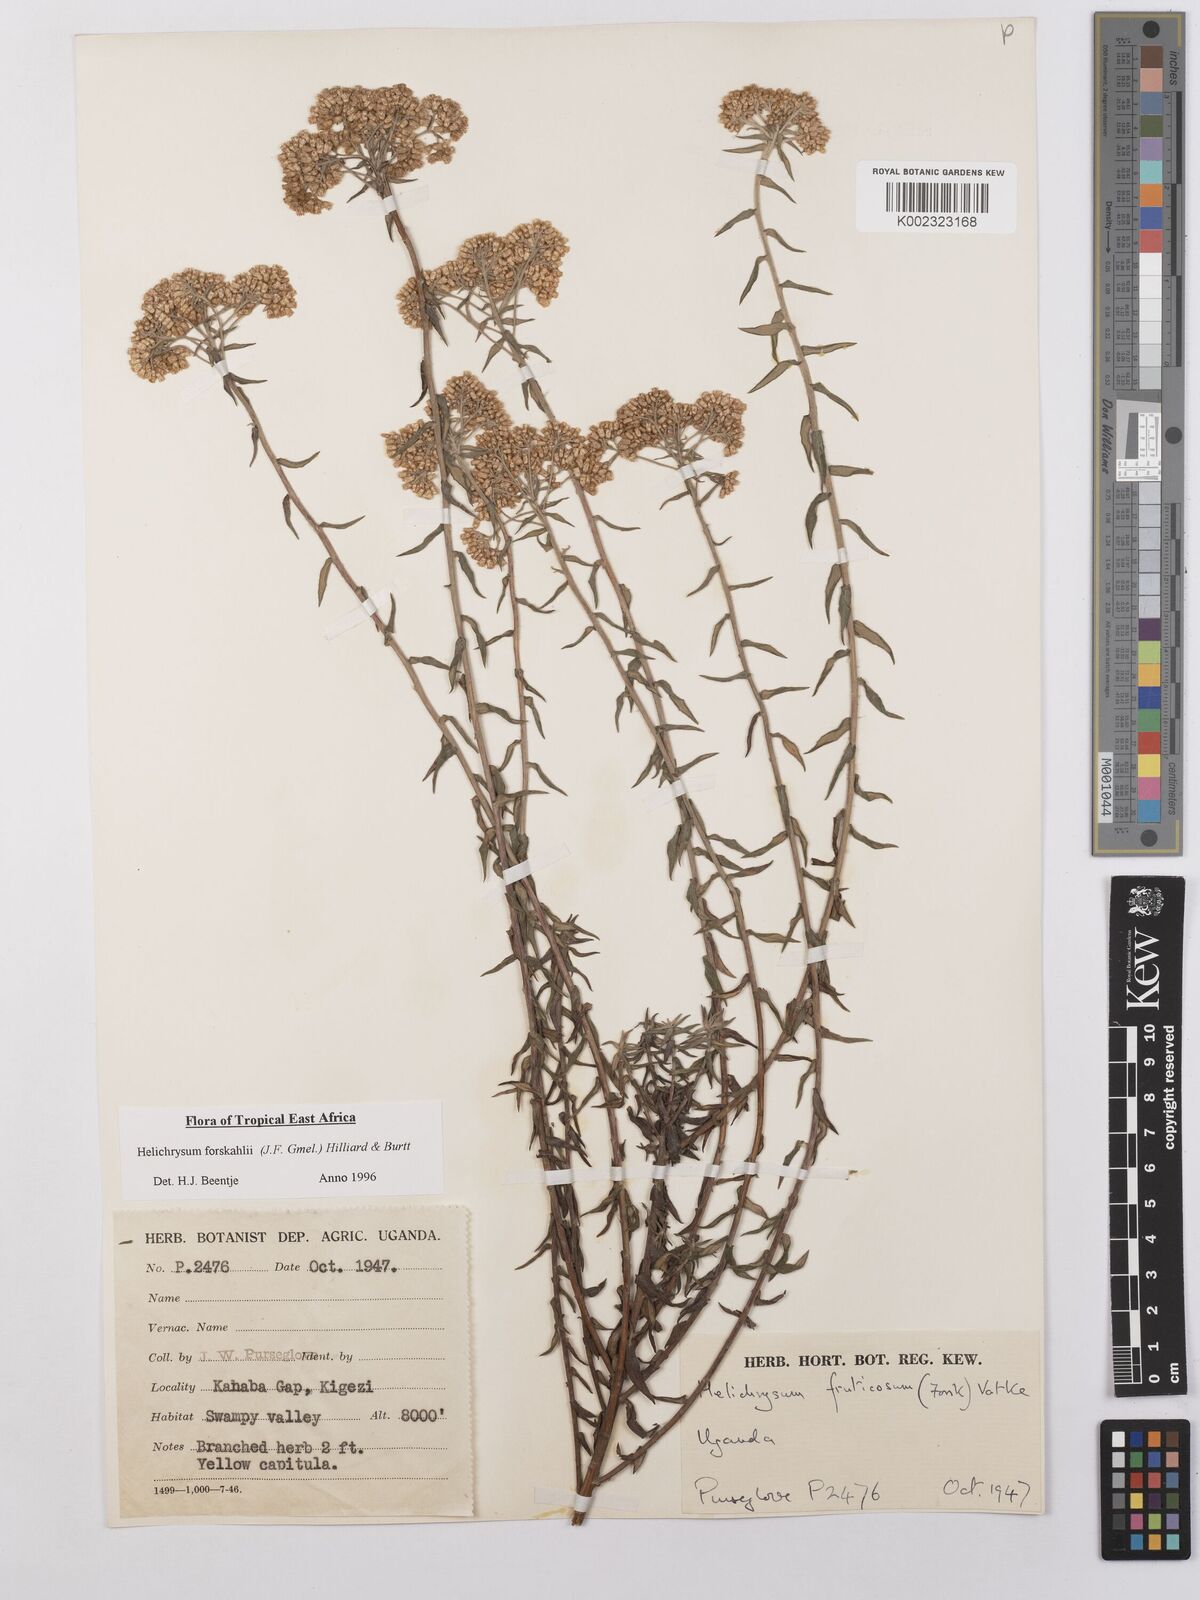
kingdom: Plantae
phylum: Tracheophyta
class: Magnoliopsida
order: Asterales
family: Asteraceae
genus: Helichrysum
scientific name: Helichrysum forskahlii
